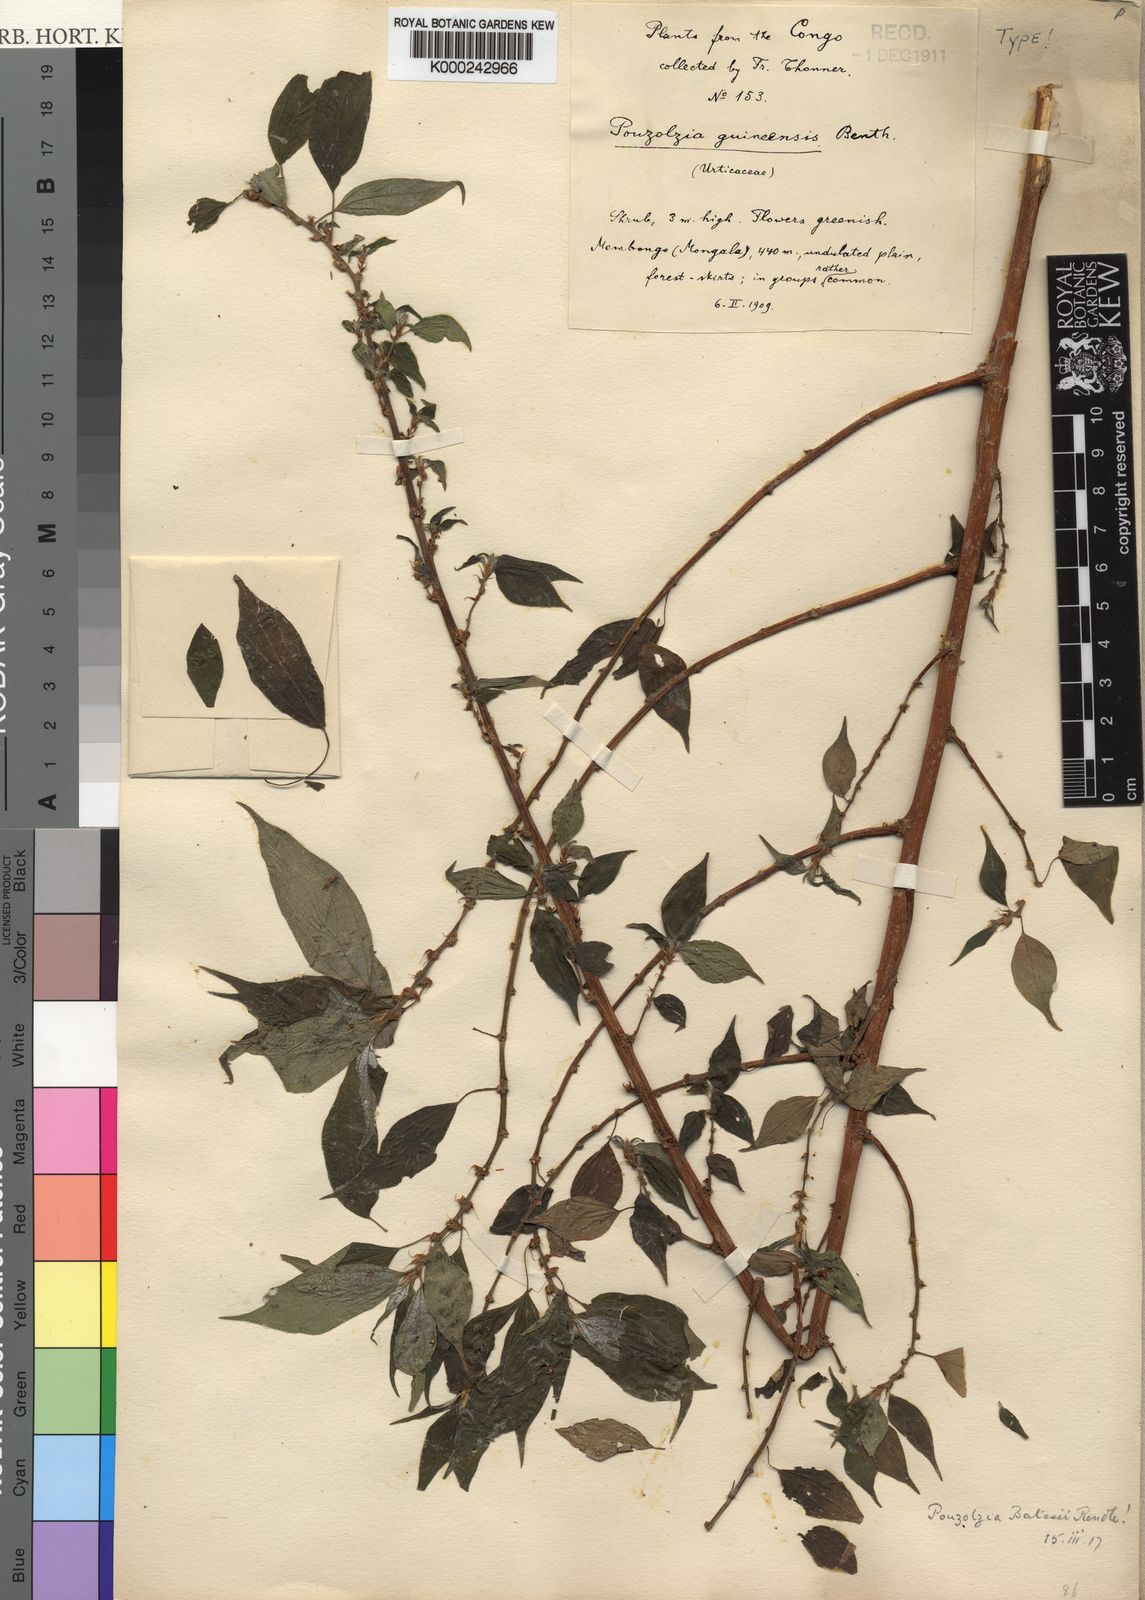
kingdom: Plantae
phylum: Tracheophyta
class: Magnoliopsida
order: Rosales
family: Urticaceae
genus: Pouzolzia
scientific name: Pouzolzia denudata
